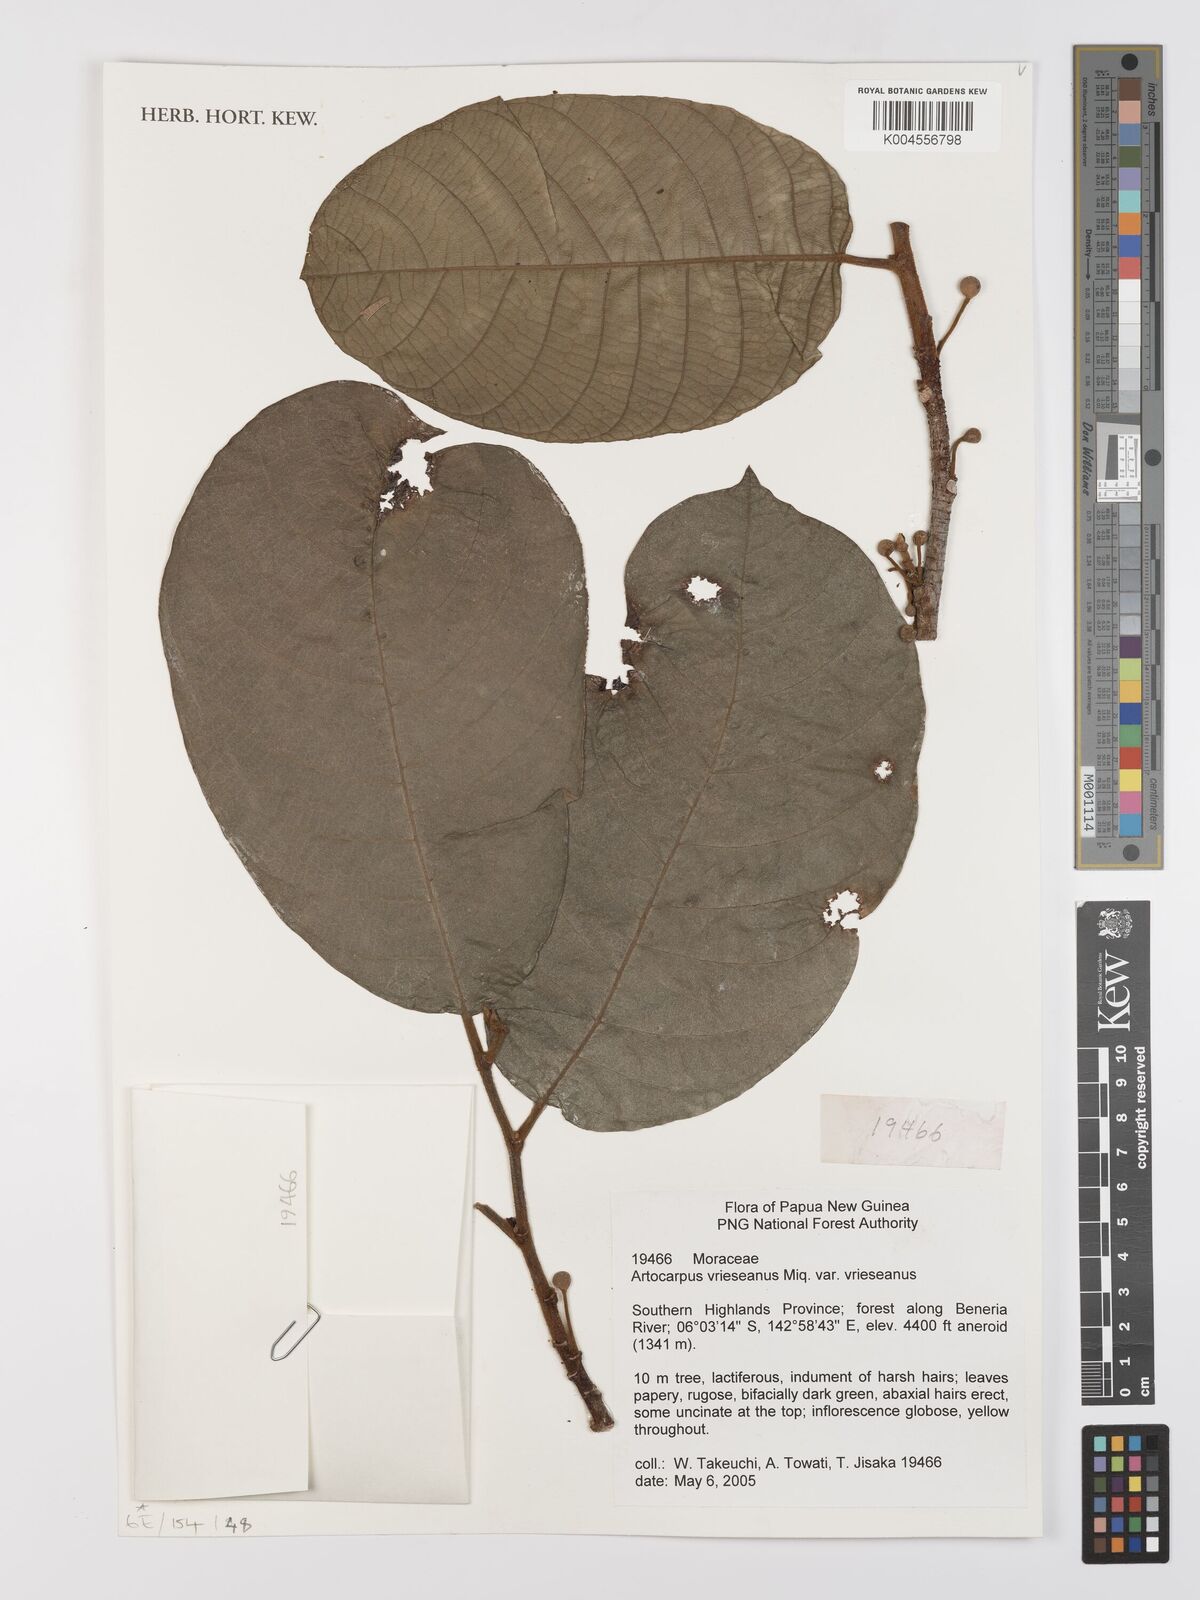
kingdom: Plantae
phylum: Tracheophyta
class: Magnoliopsida
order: Rosales
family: Moraceae
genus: Artocarpus
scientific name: Artocarpus vrieseanus
